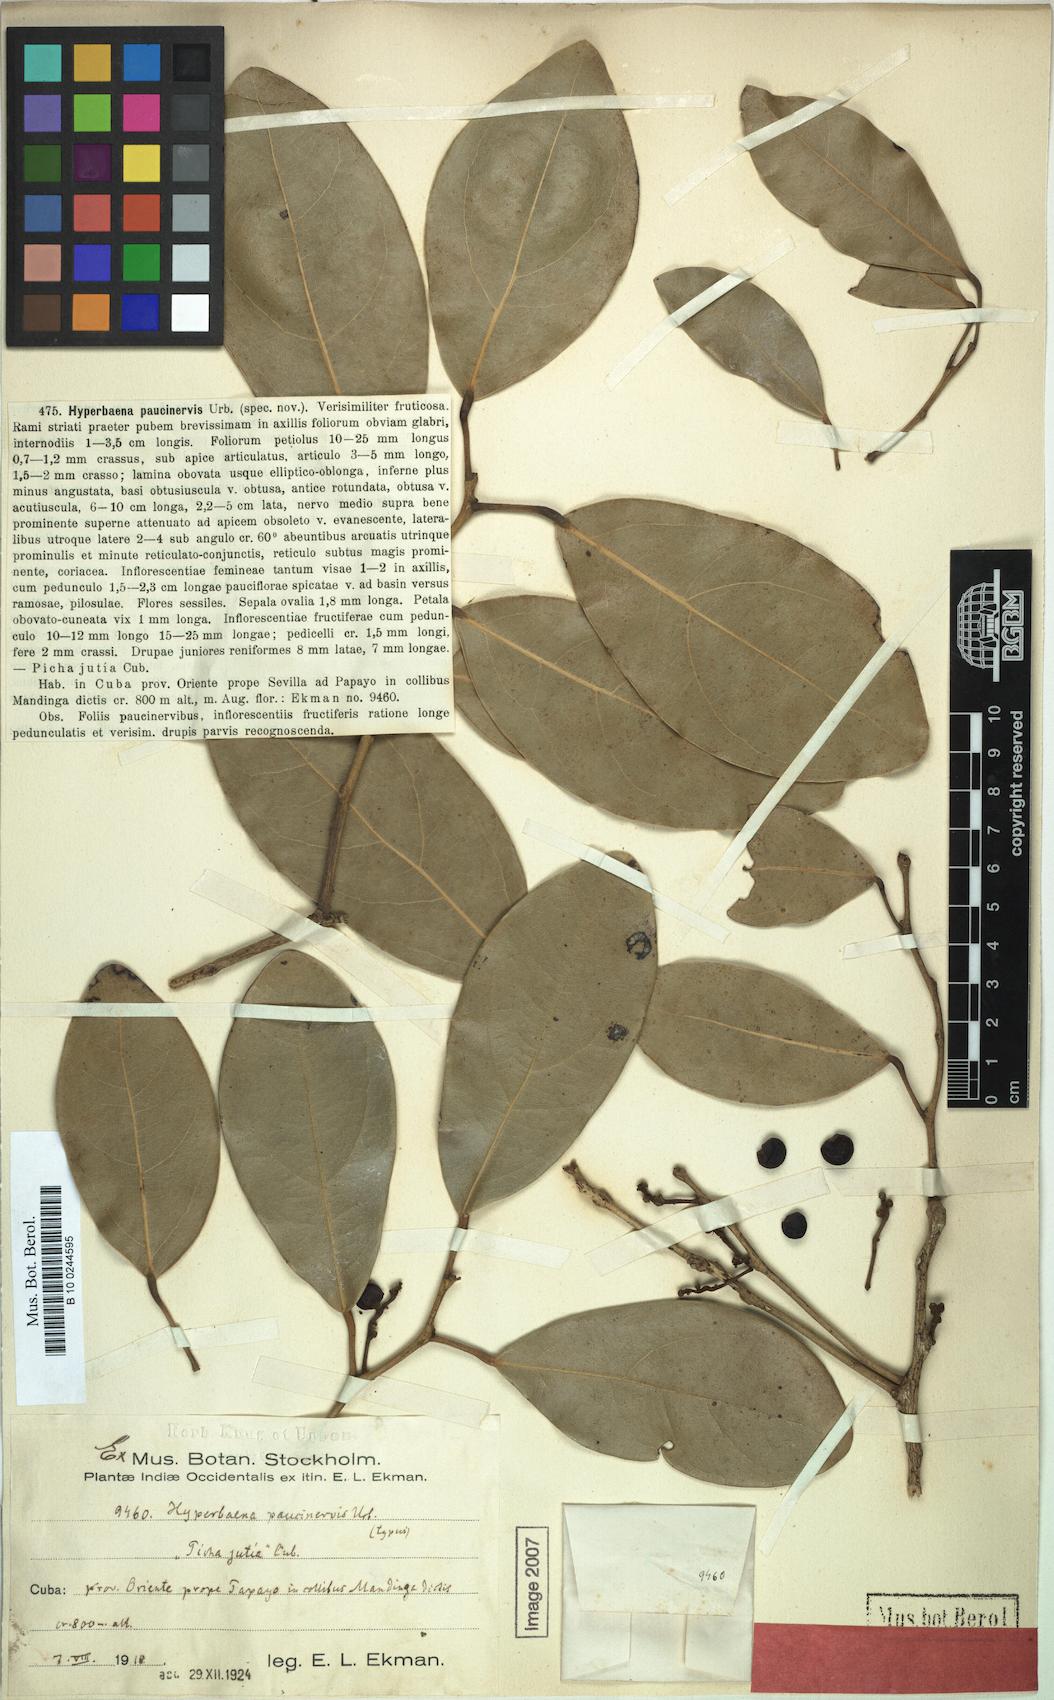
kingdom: Plantae
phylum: Tracheophyta
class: Magnoliopsida
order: Ranunculales
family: Menispermaceae
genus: Hyperbaena
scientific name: Hyperbaena axilliflora
